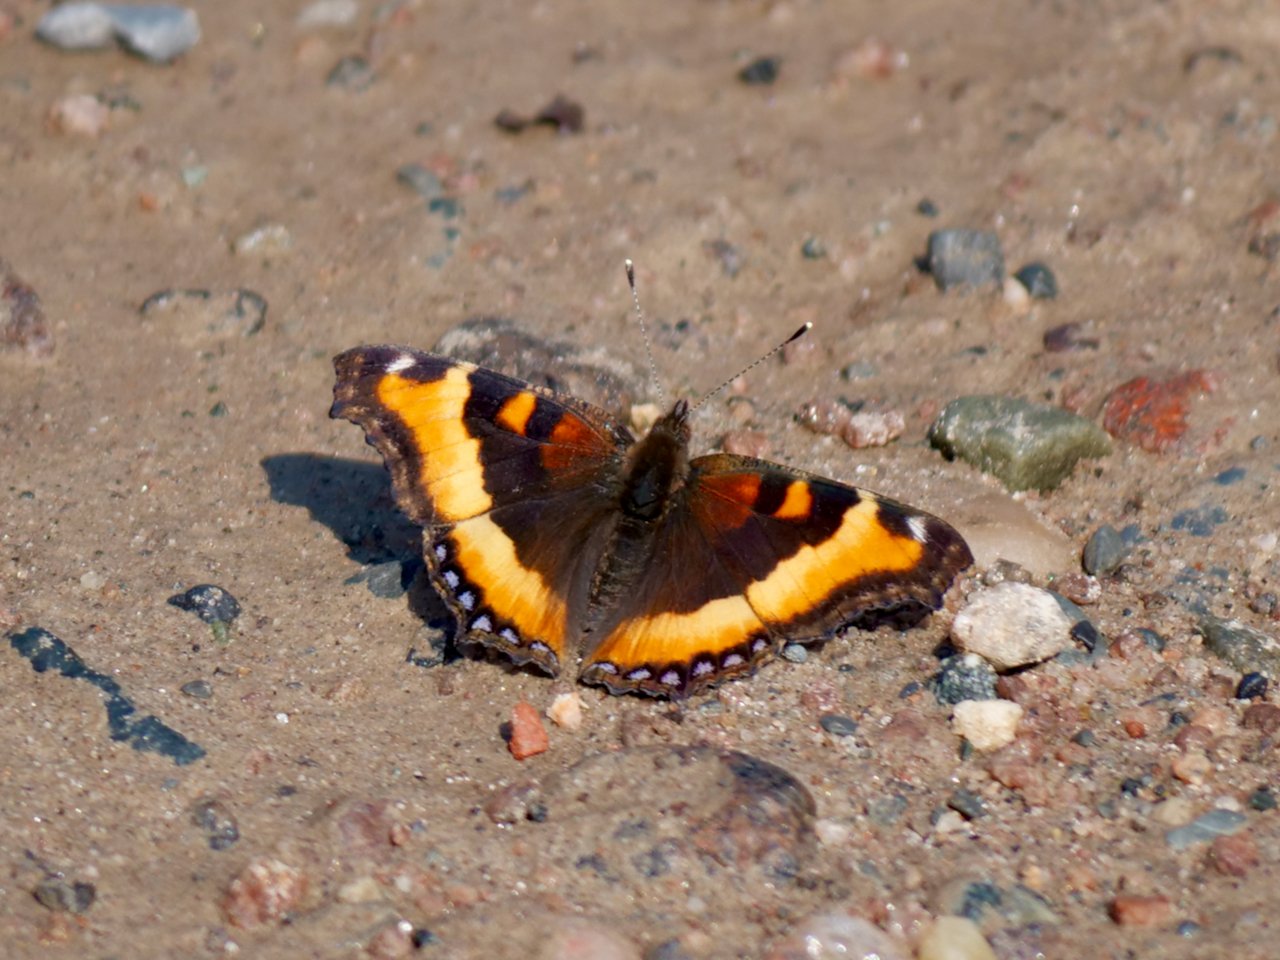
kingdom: Animalia
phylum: Arthropoda
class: Insecta
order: Lepidoptera
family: Nymphalidae
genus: Aglais
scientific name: Aglais milberti
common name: Milbert's Tortoiseshell
